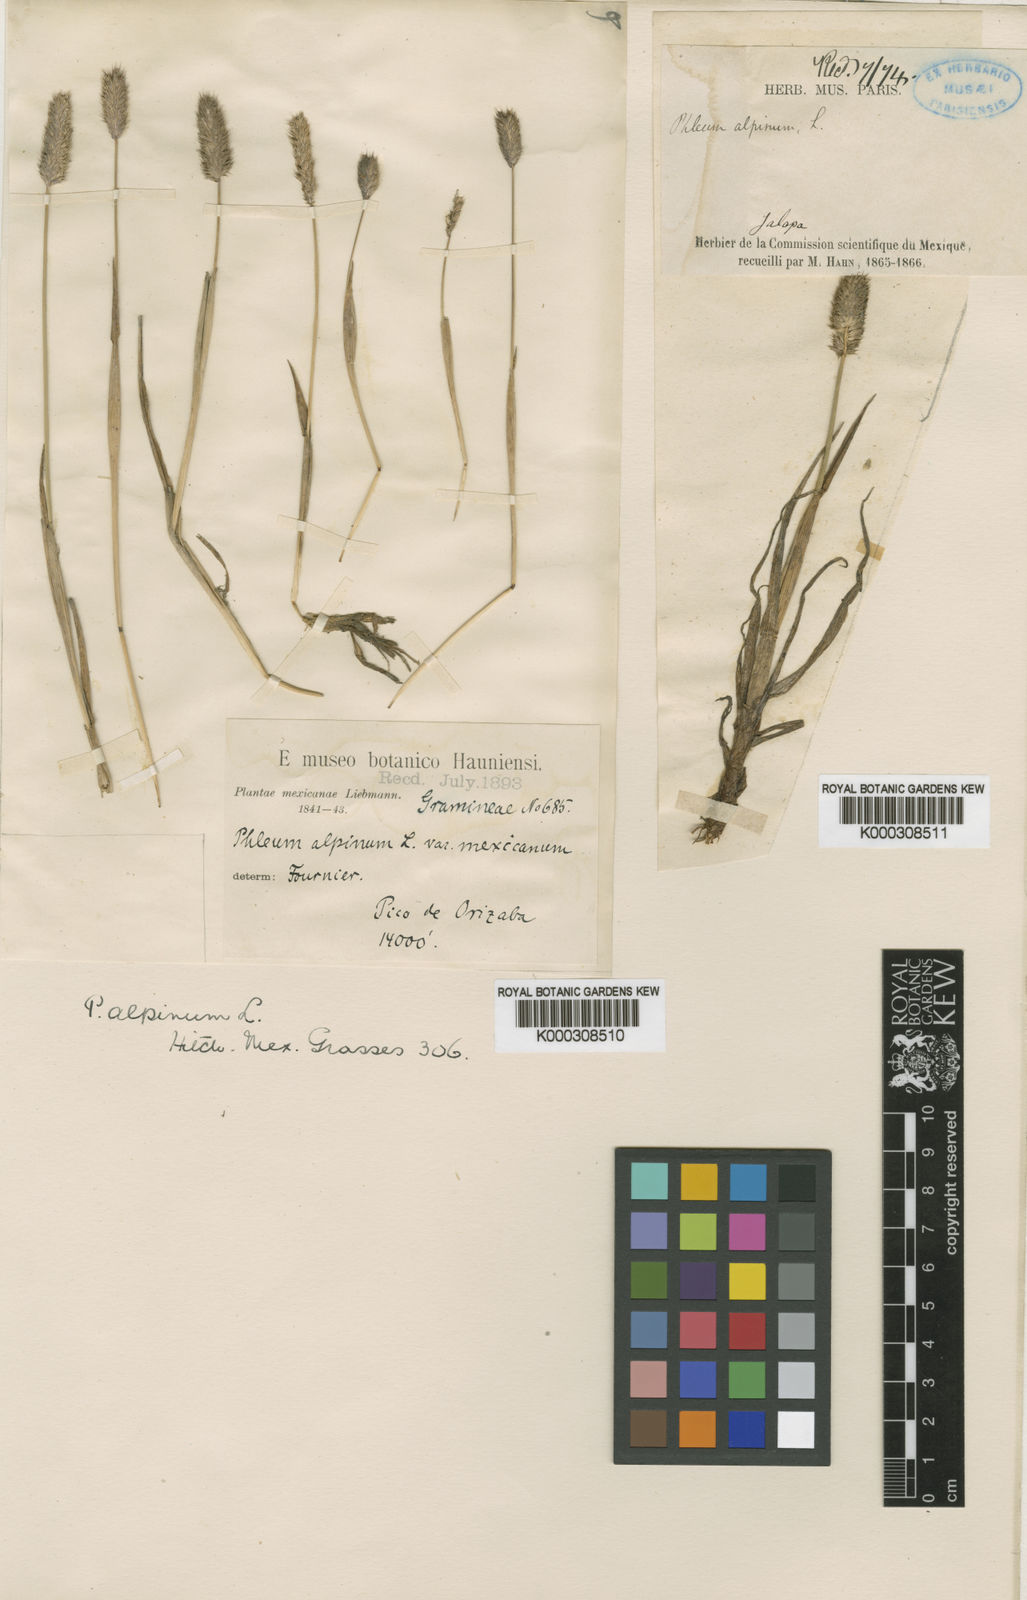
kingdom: Plantae
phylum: Tracheophyta
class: Liliopsida
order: Poales
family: Poaceae
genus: Phleum
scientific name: Phleum alpinum
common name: Alpine cat's-tail
